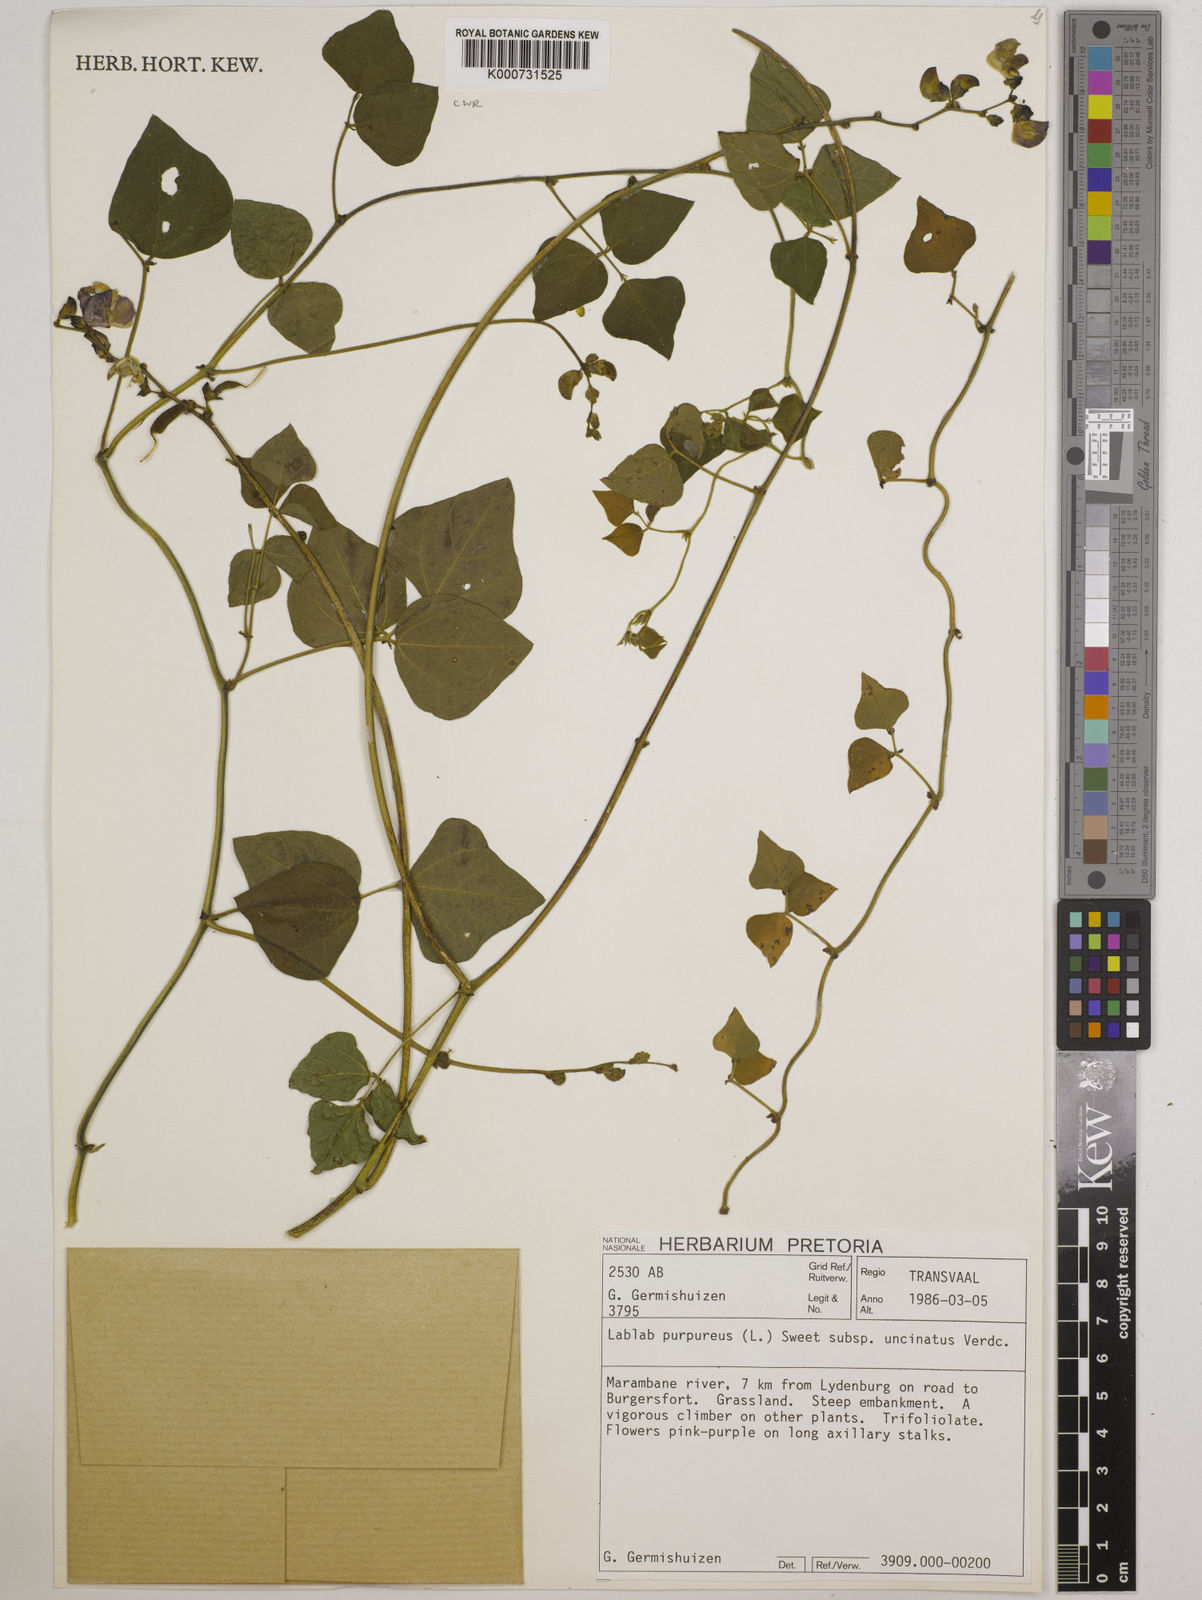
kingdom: Plantae
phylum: Tracheophyta
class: Magnoliopsida
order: Fabales
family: Fabaceae
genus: Lablab
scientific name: Lablab purpureus
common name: Lablab-bean
